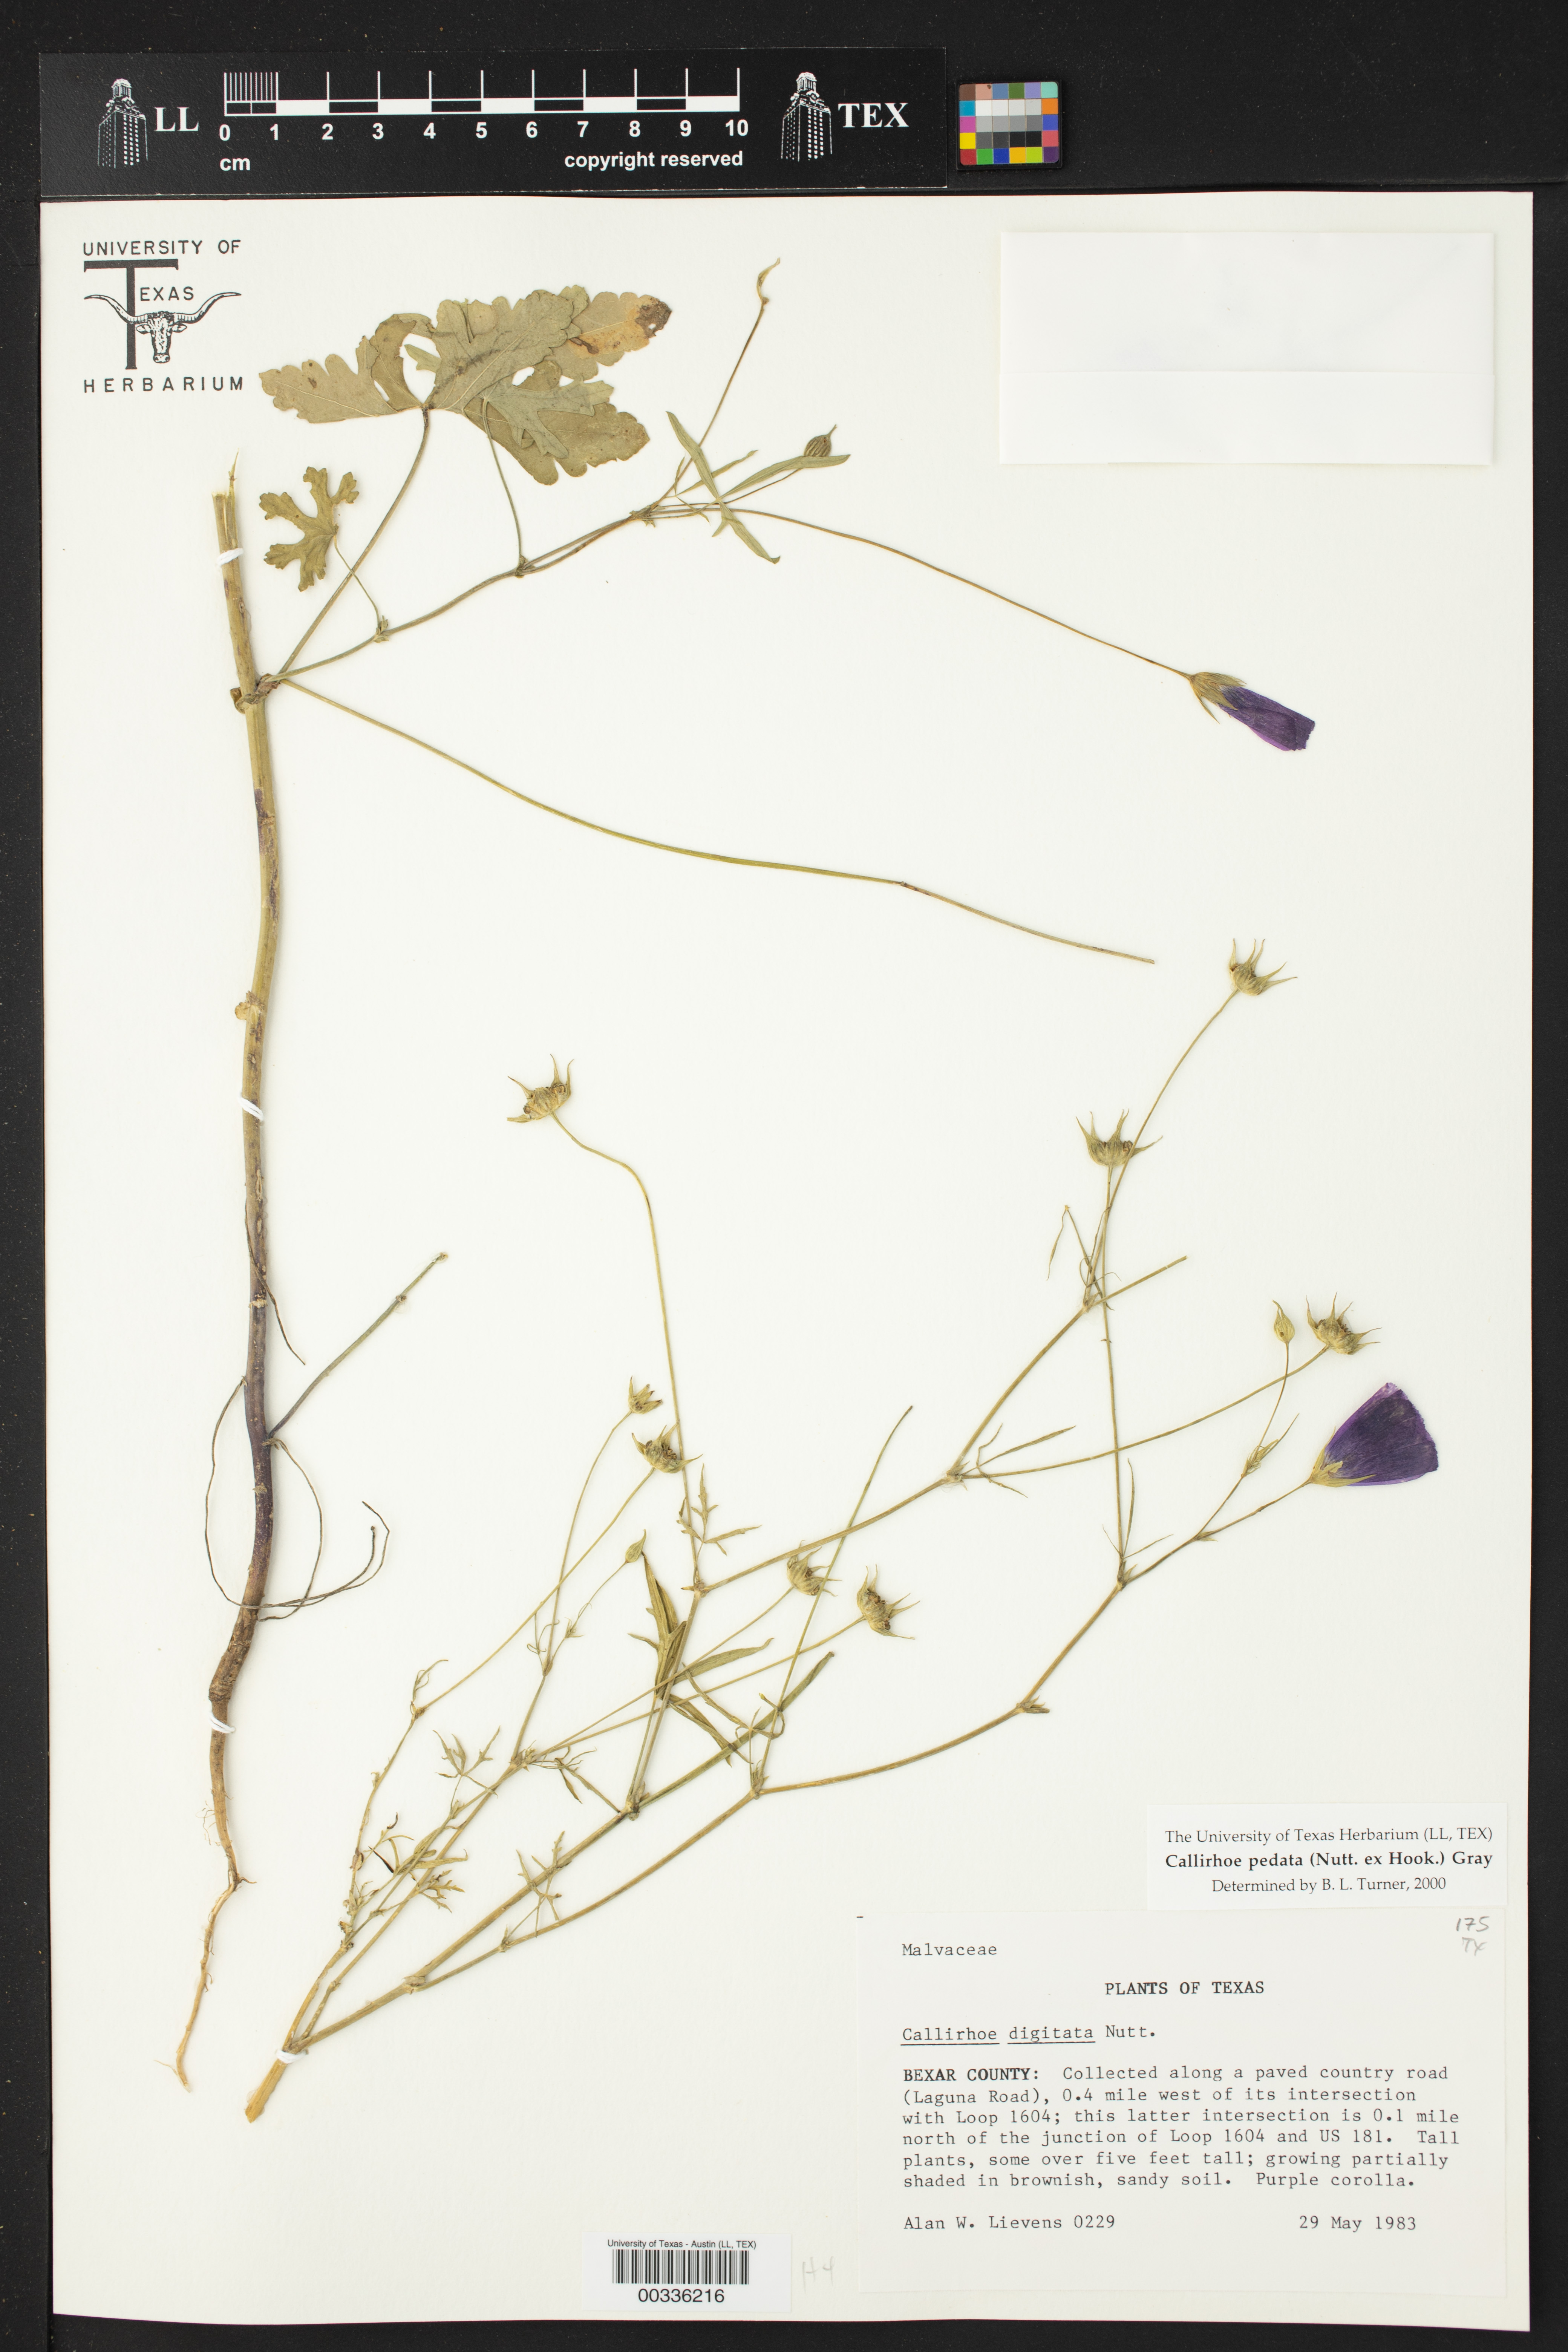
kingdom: Plantae
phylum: Tracheophyta
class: Magnoliopsida
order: Malvales
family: Malvaceae
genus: Callirhoe
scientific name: Callirhoe pedata
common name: Finger poppy-mallow
